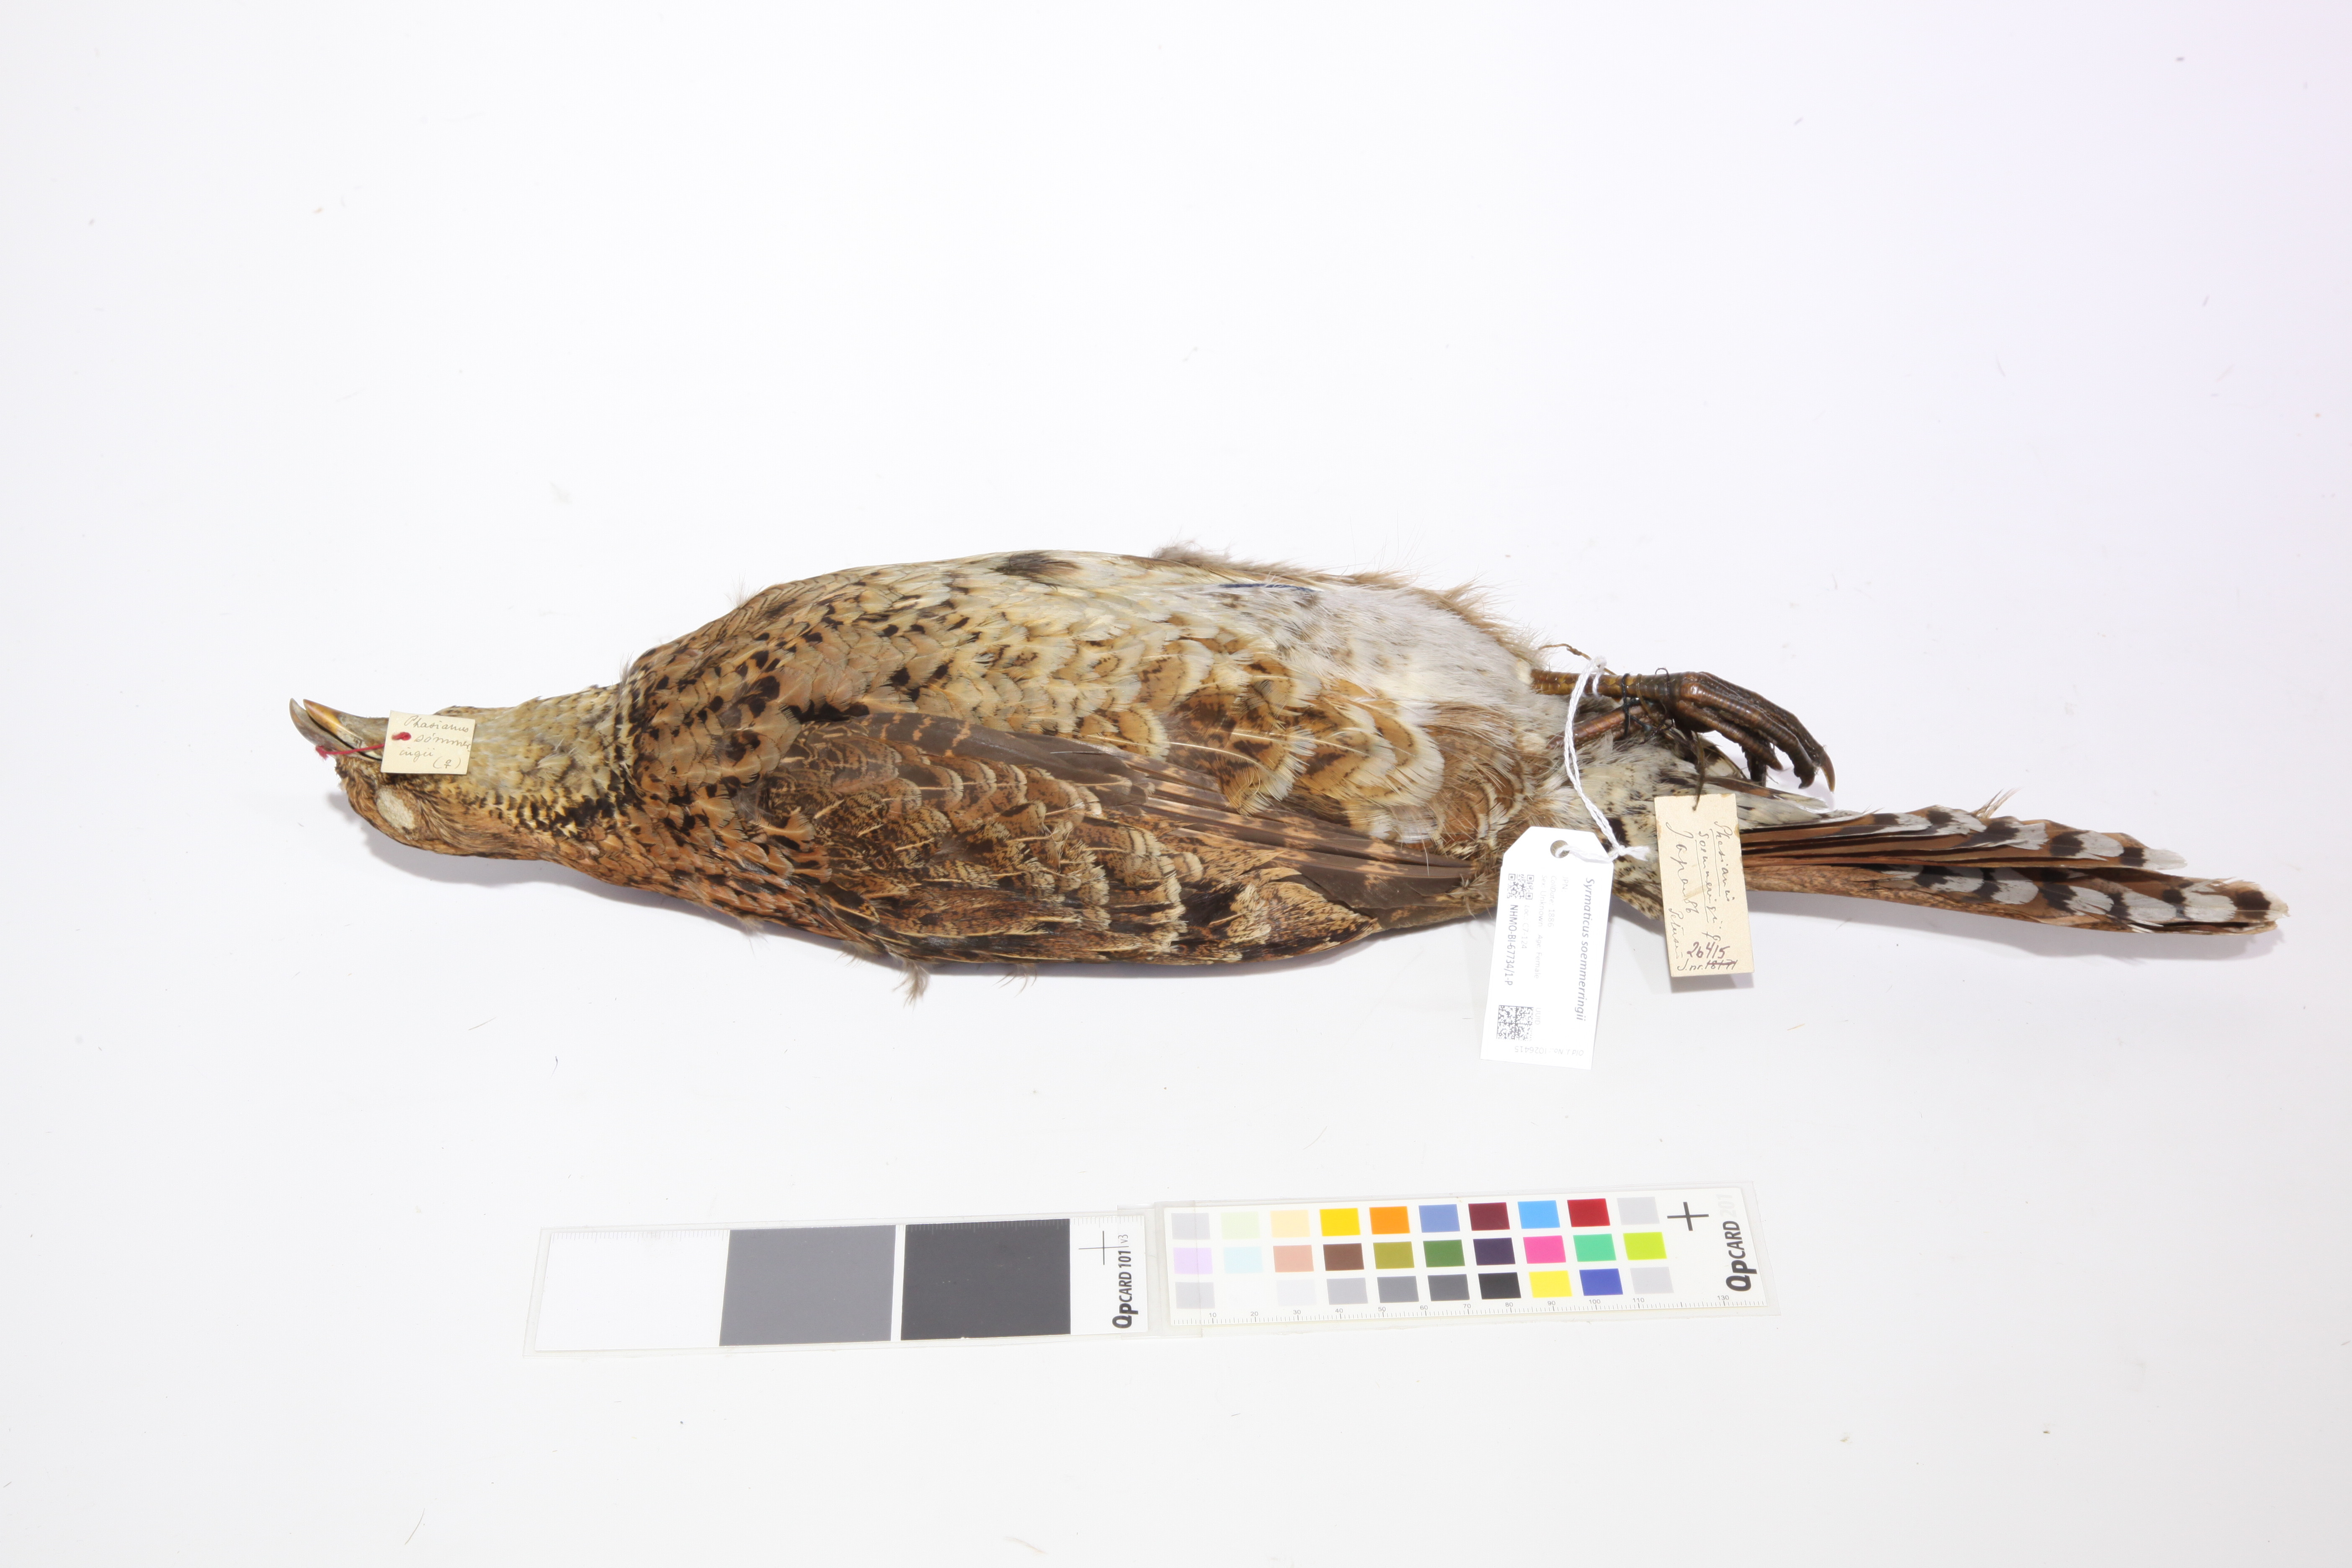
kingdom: Animalia
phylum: Chordata
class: Aves
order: Galliformes
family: Phasianidae
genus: Syrmaticus
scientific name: Syrmaticus soemmerringii
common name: Copper pheasant
